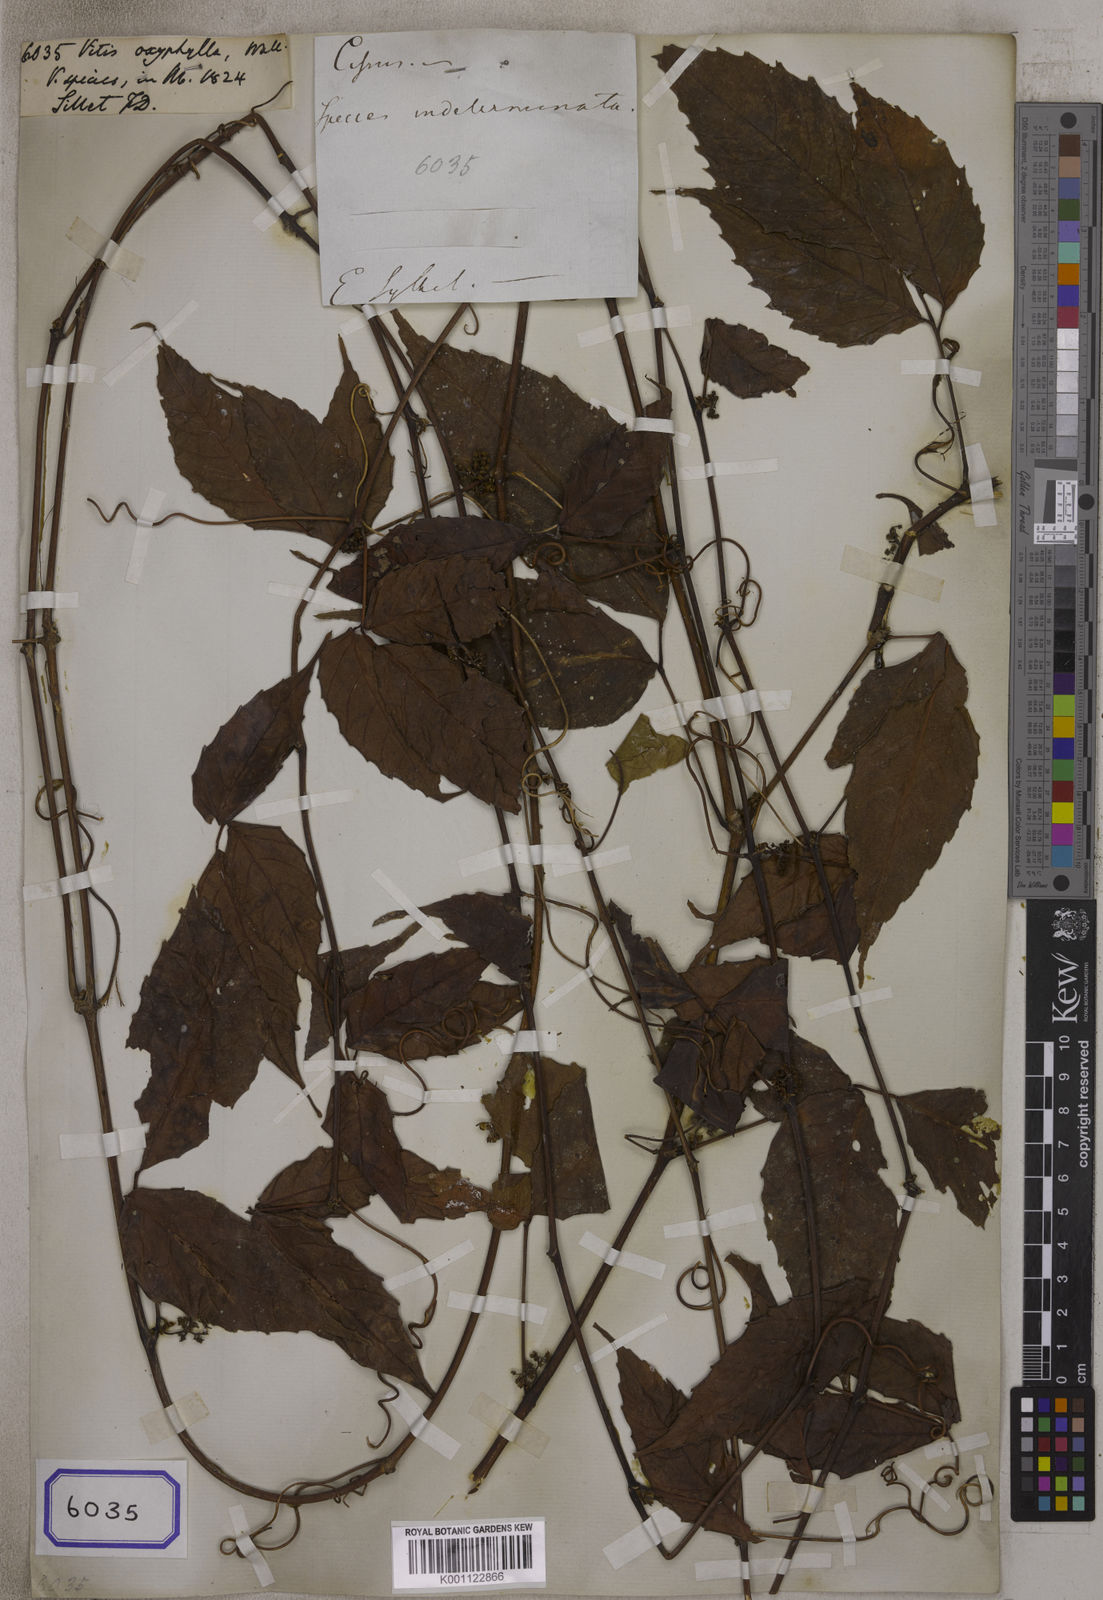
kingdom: Plantae
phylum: Tracheophyta
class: Magnoliopsida
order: Vitales
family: Vitaceae
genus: Tetrastigma
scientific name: Tetrastigma dubium
